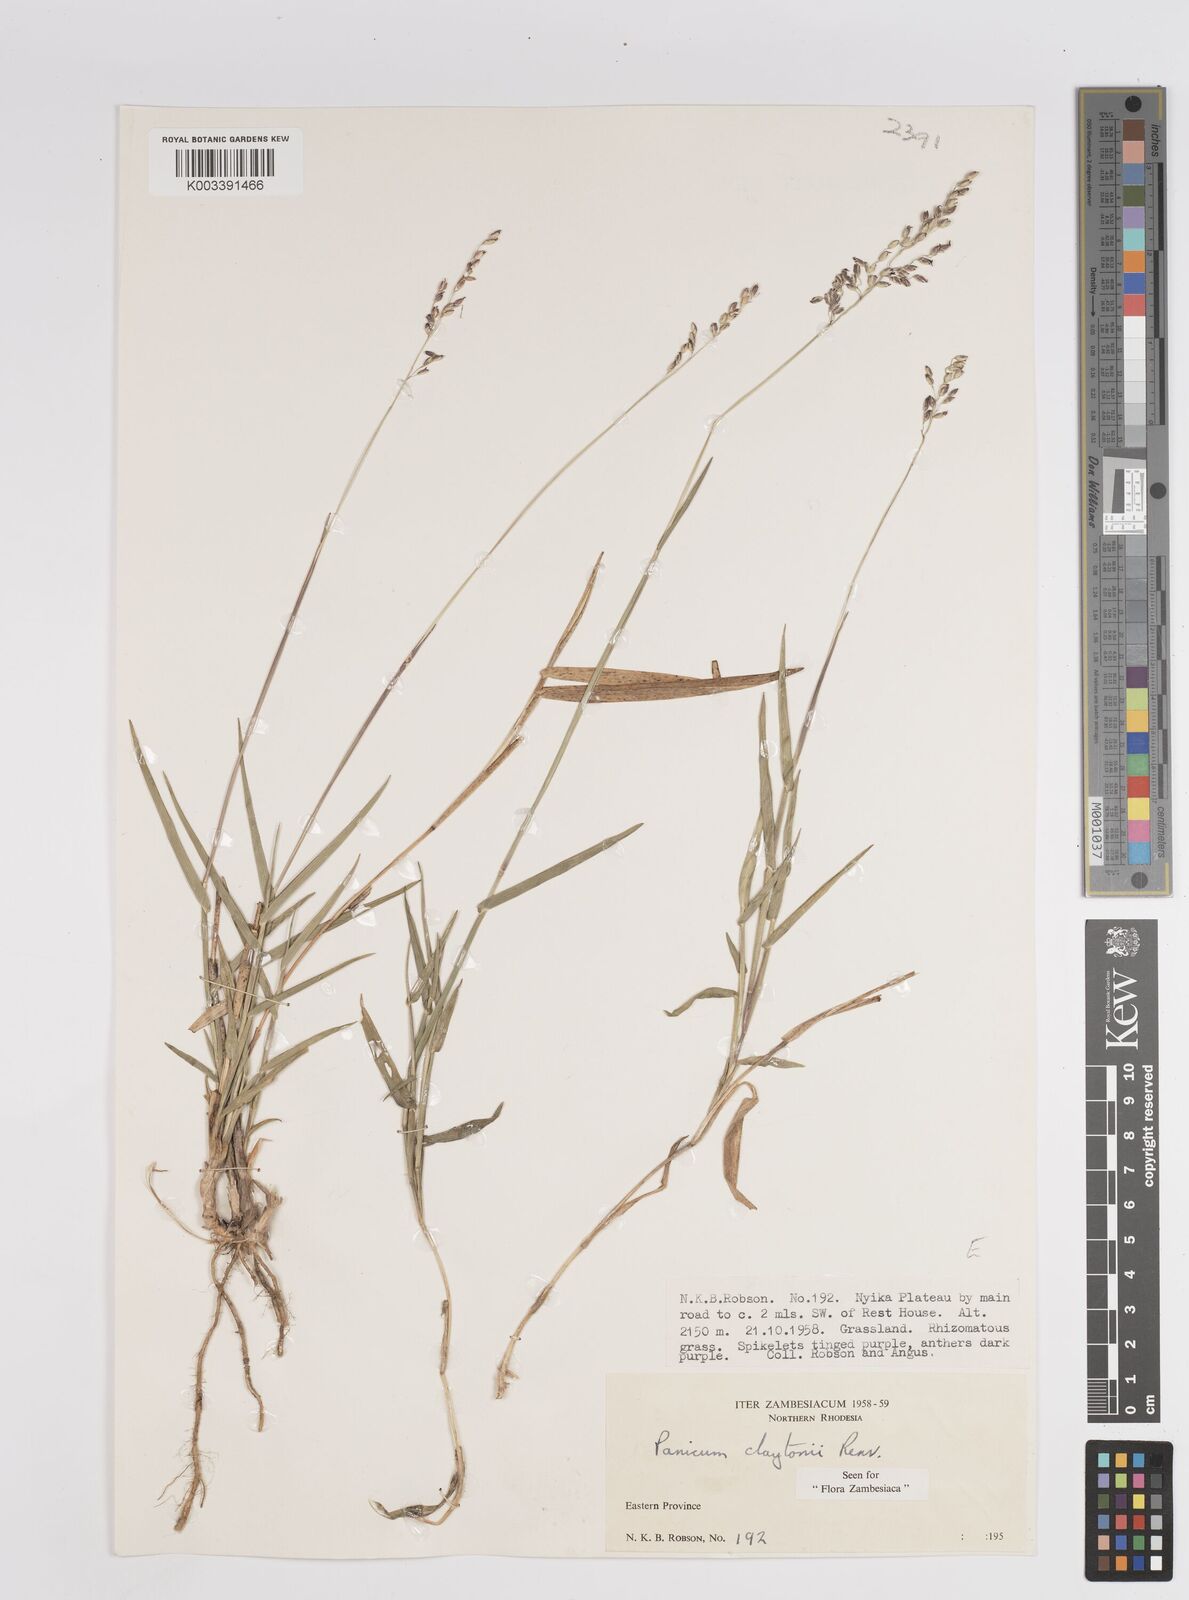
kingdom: Plantae
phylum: Tracheophyta
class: Liliopsida
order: Poales
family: Poaceae
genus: Adenochloa
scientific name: Adenochloa claytonii
